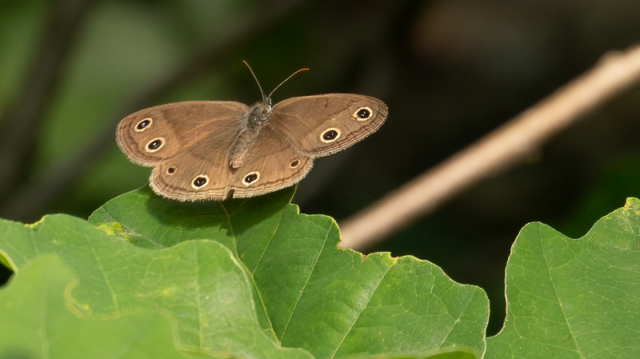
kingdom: Animalia
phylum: Arthropoda
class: Insecta
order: Lepidoptera
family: Nymphalidae
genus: Euptychia
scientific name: Euptychia cymela
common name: Little Wood Satyr
